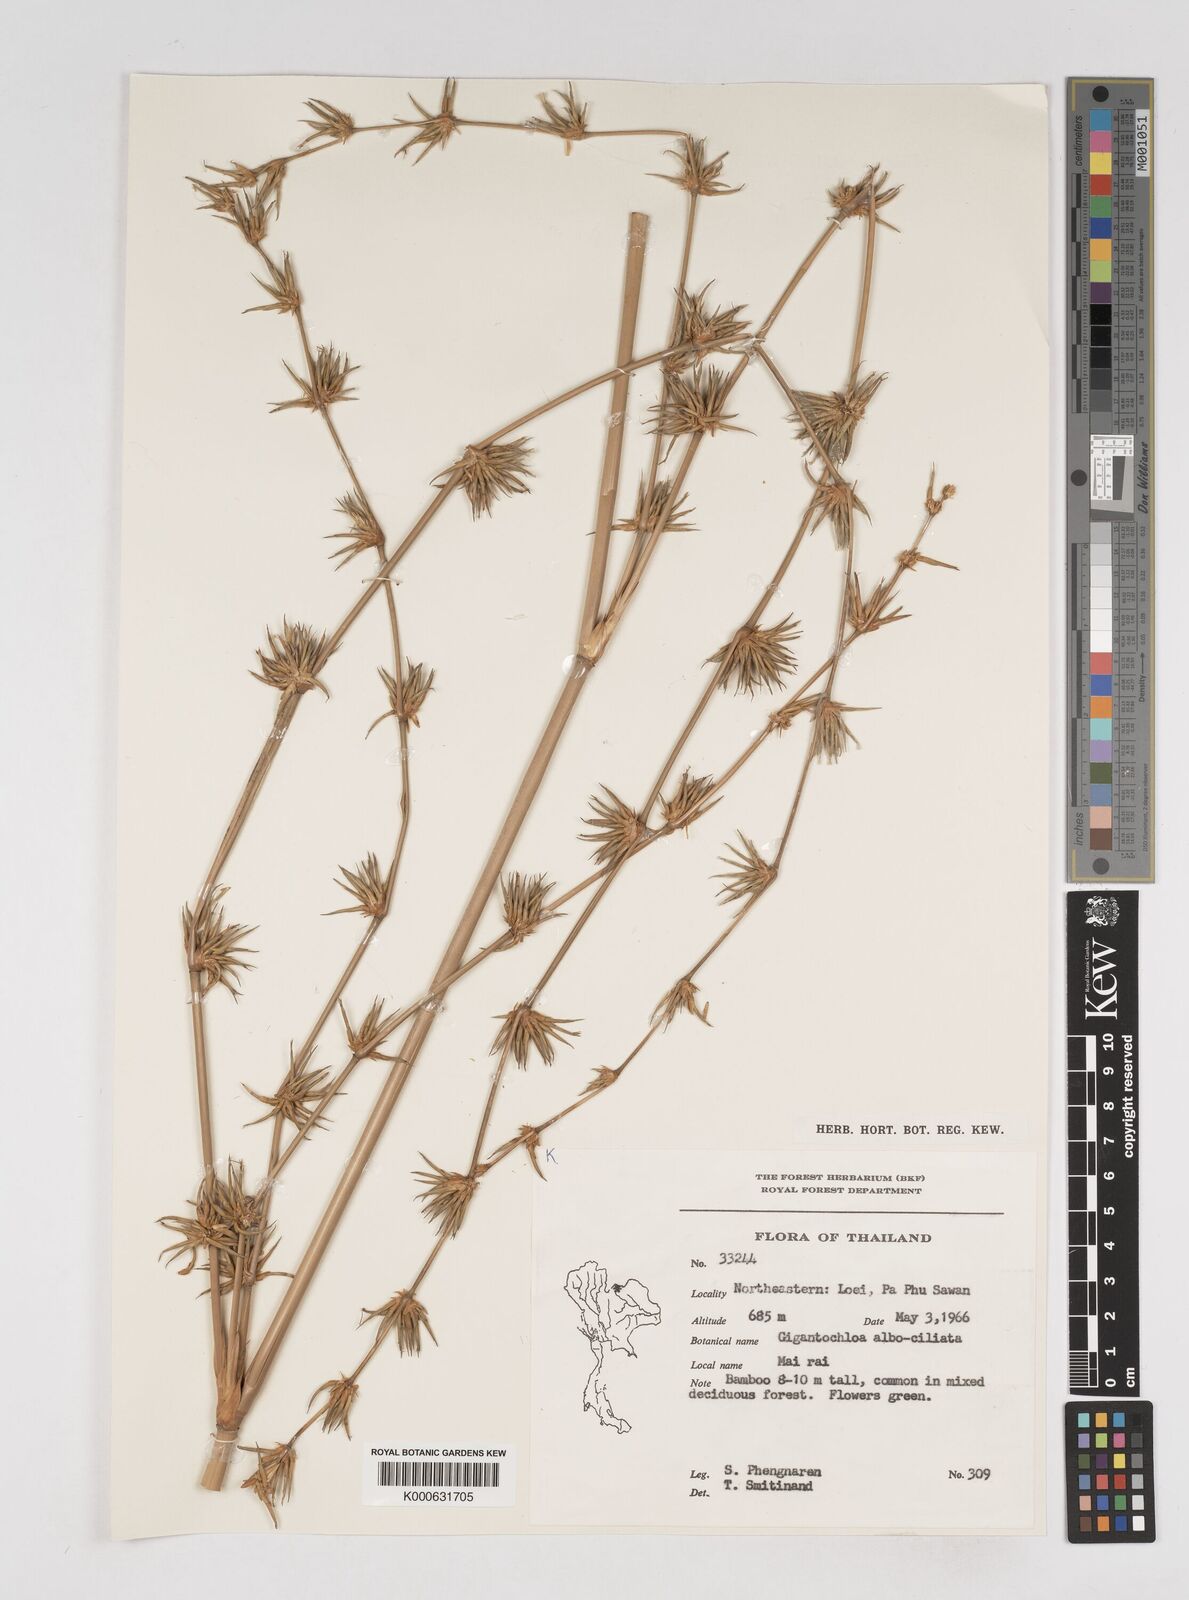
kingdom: Plantae
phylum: Tracheophyta
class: Liliopsida
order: Poales
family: Poaceae
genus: Gigantochloa
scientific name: Gigantochloa albociliata
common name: White-fringe gigantochloa
